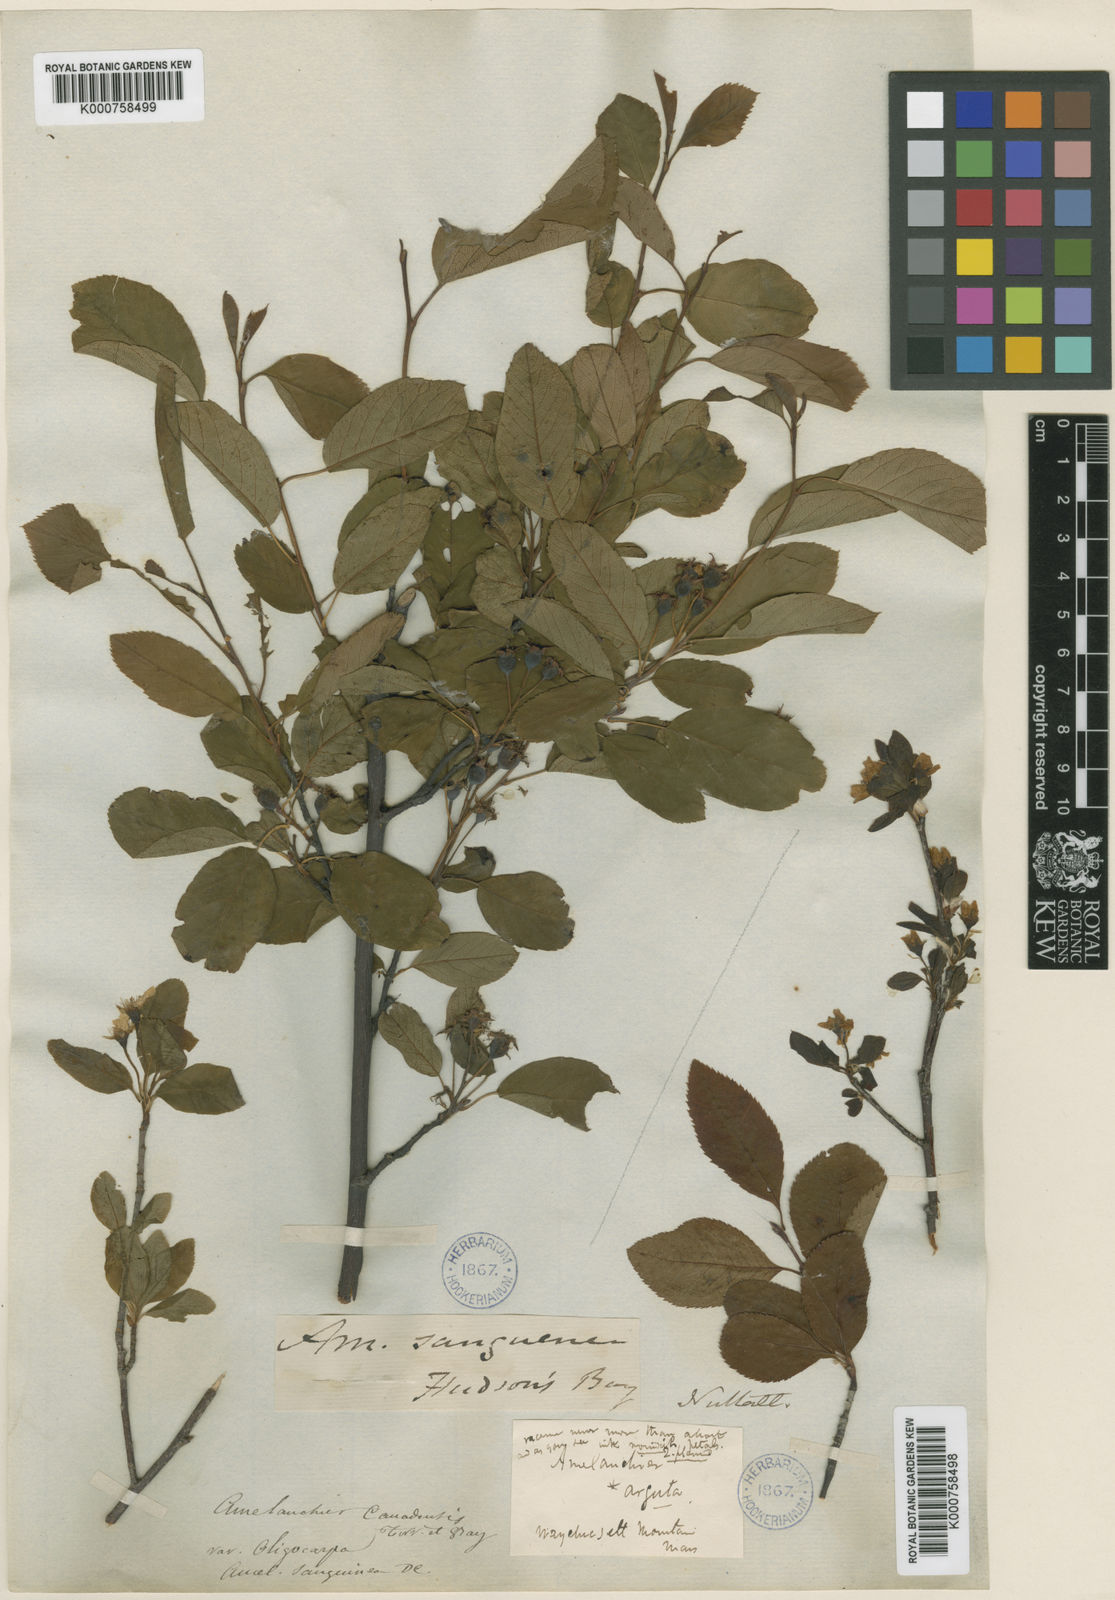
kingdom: Plantae
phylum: Tracheophyta
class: Magnoliopsida
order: Rosales
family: Rosaceae
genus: Amelanchier
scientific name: Amelanchier bartramiana
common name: Mountain serviceberry
